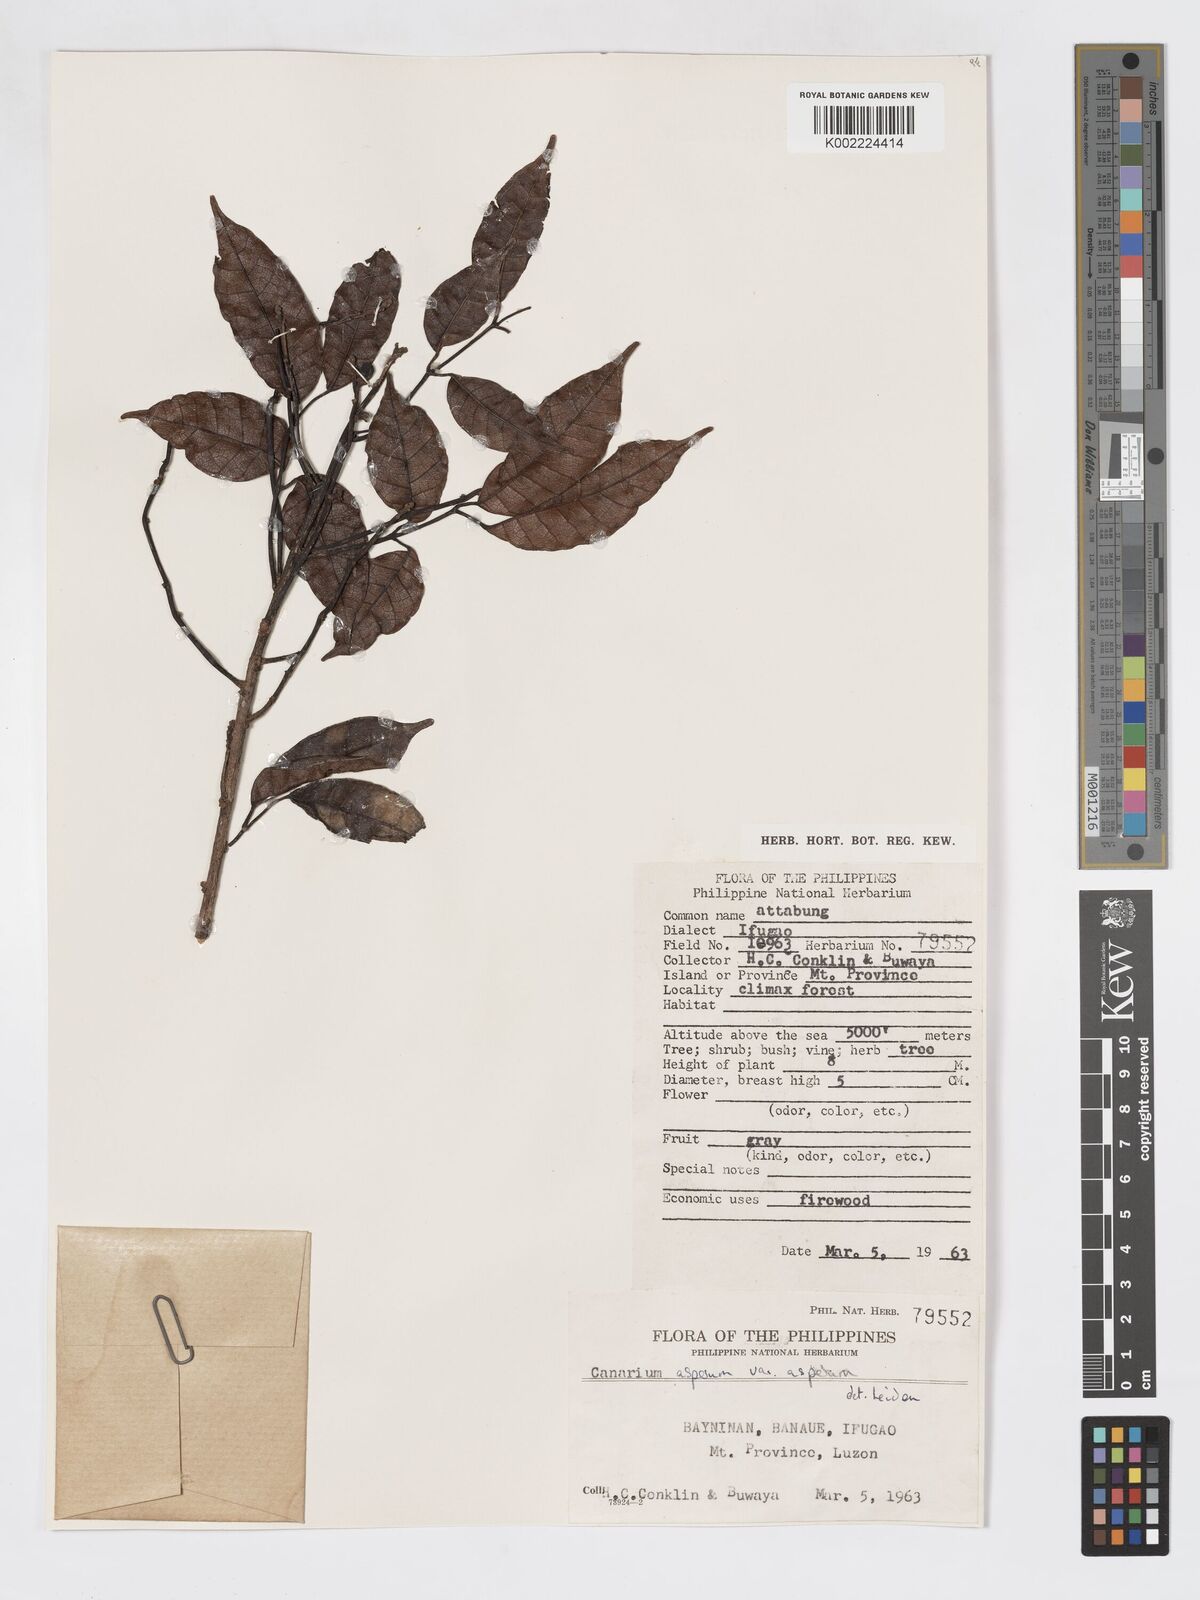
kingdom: Plantae
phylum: Tracheophyta
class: Magnoliopsida
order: Sapindales
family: Burseraceae
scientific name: Burseraceae
